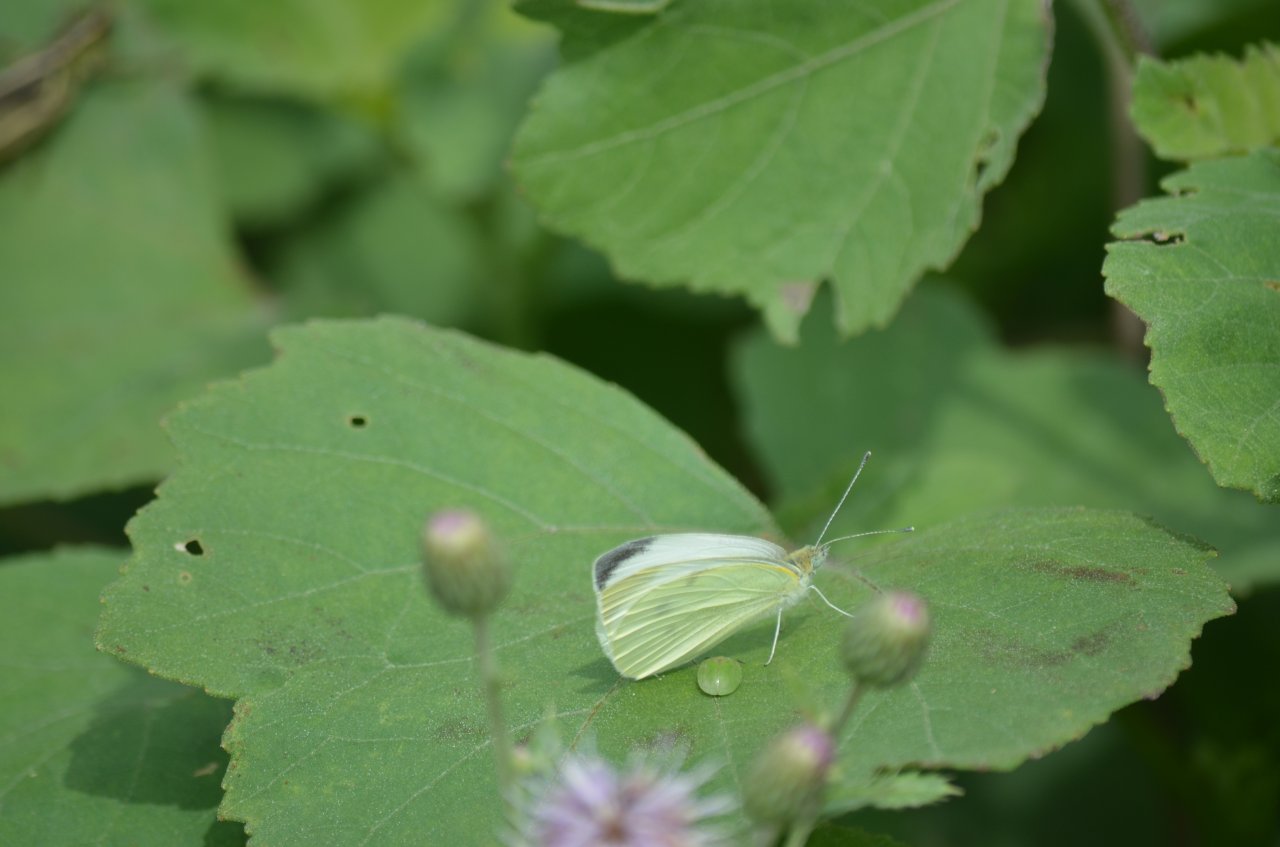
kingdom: Animalia
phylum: Arthropoda
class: Insecta
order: Lepidoptera
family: Pieridae
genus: Pieris
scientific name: Pieris rapae
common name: Cabbage White
